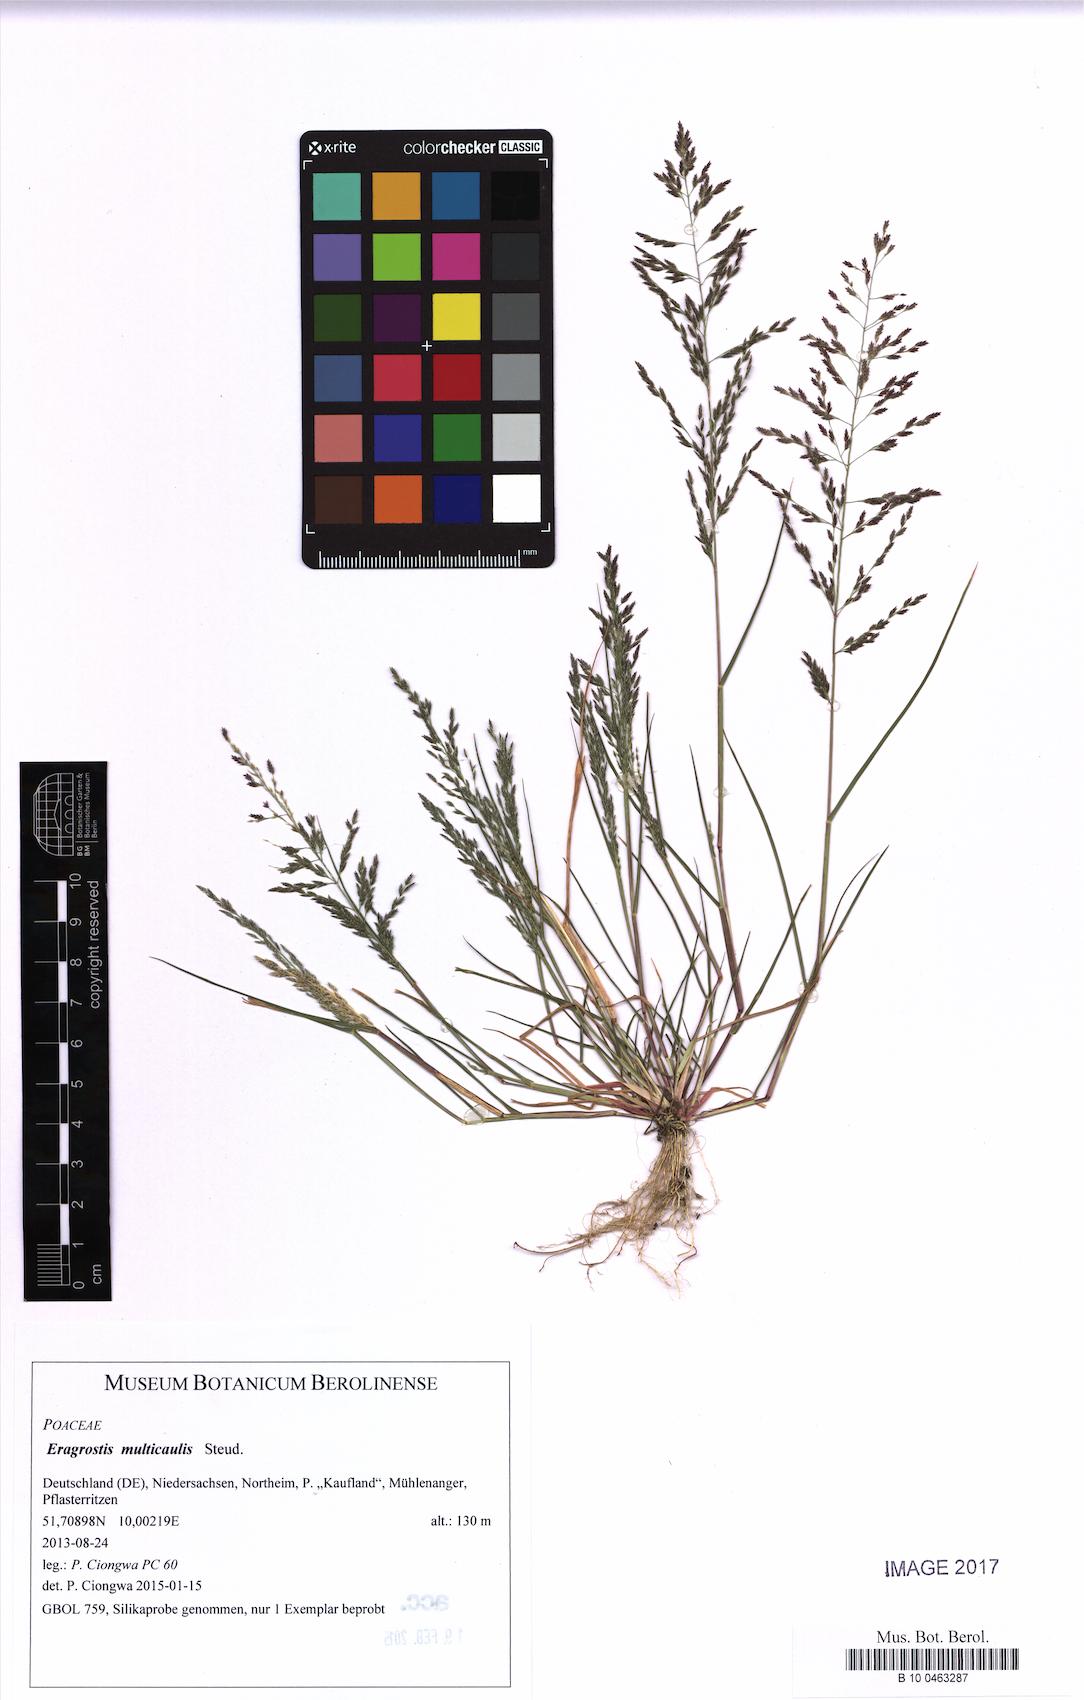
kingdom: Plantae
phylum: Tracheophyta
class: Liliopsida
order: Poales
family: Poaceae
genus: Eragrostis
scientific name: Eragrostis multicaulis
